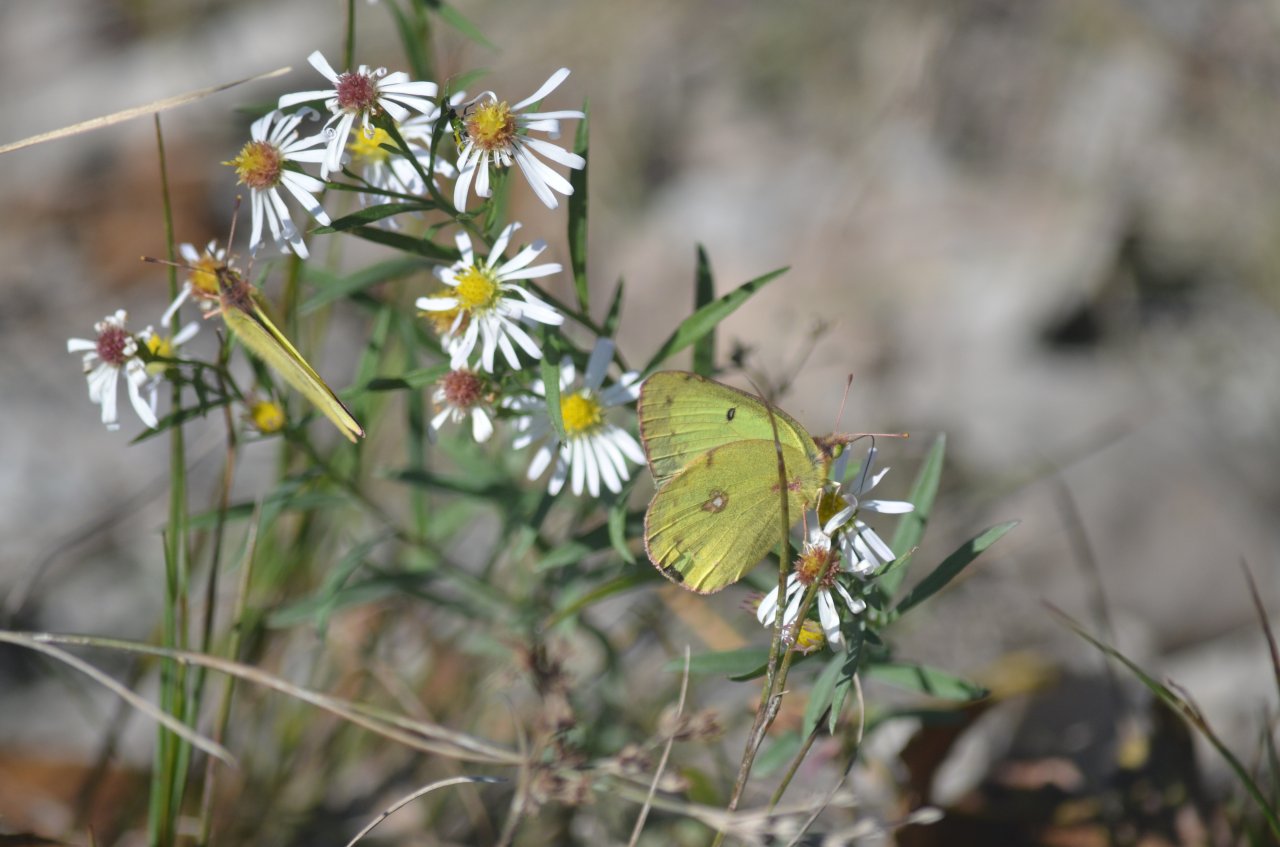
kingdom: Animalia
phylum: Arthropoda
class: Insecta
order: Lepidoptera
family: Pieridae
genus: Colias
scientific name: Colias philodice
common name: Clouded Sulphur
